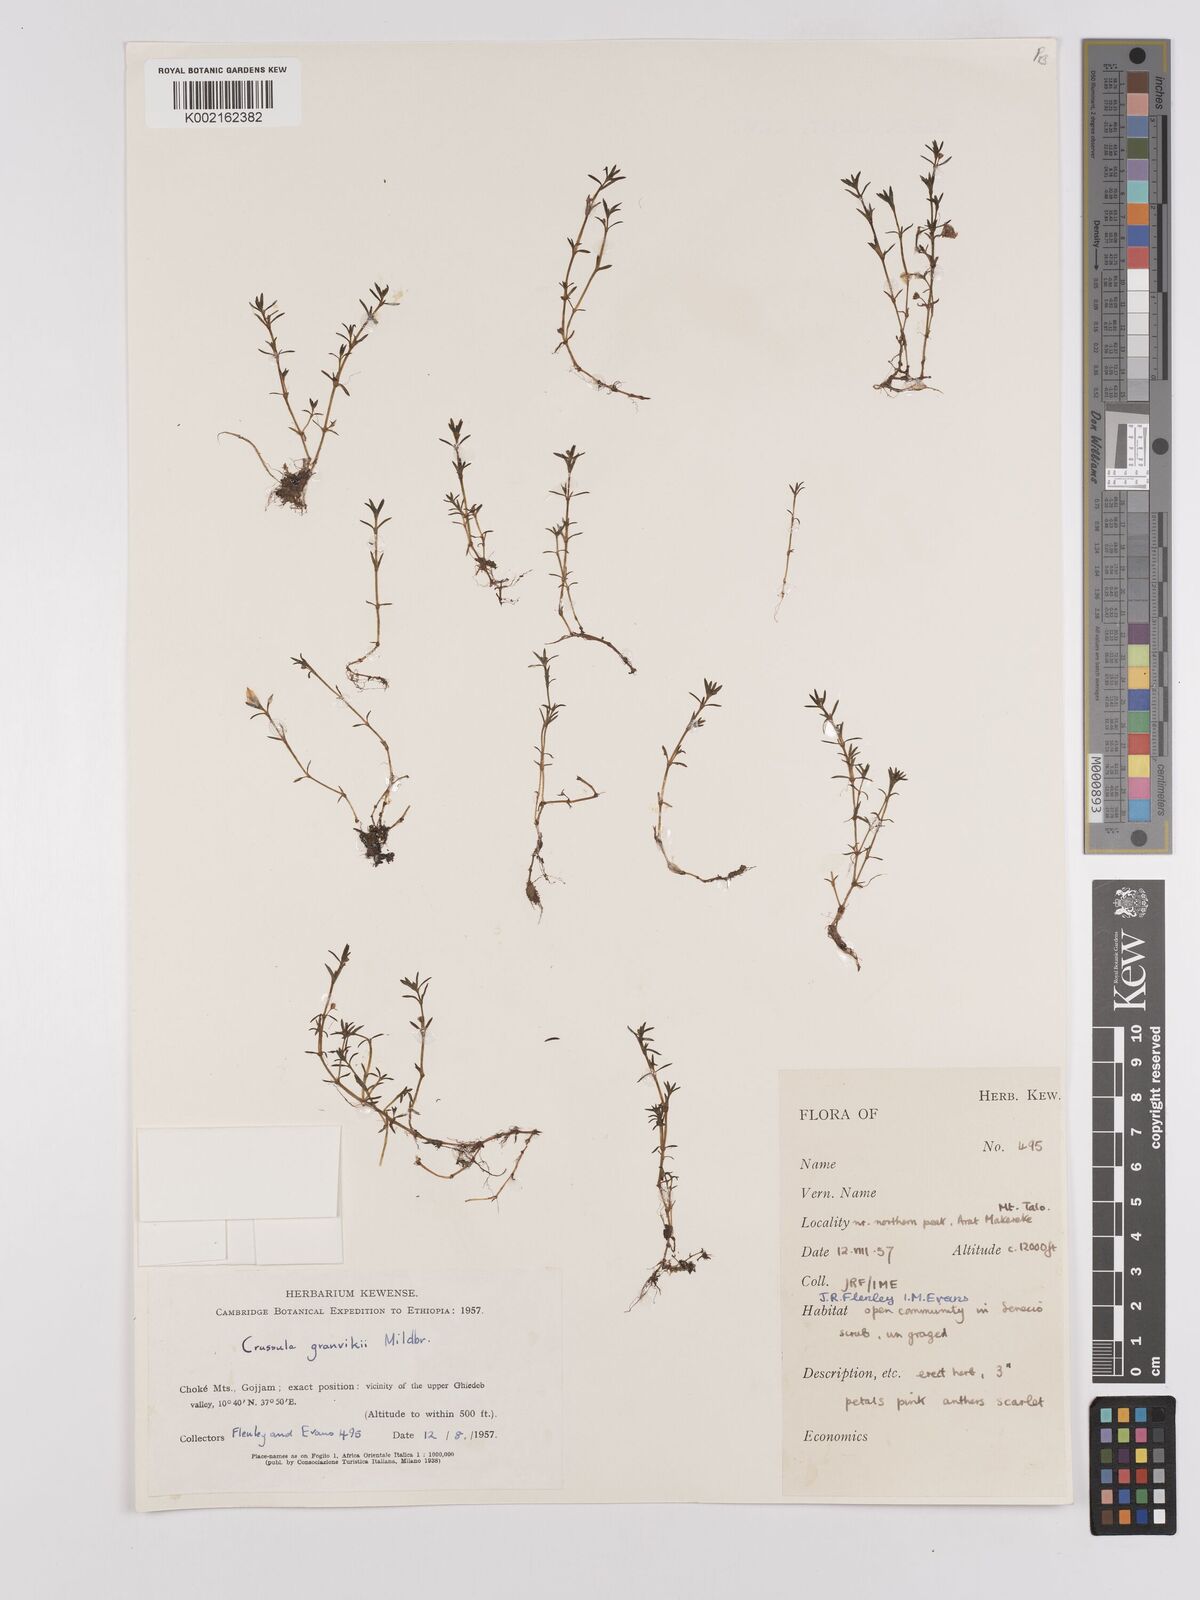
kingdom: Plantae
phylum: Tracheophyta
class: Magnoliopsida
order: Saxifragales
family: Crassulaceae
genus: Crassula
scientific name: Crassula granvikii
